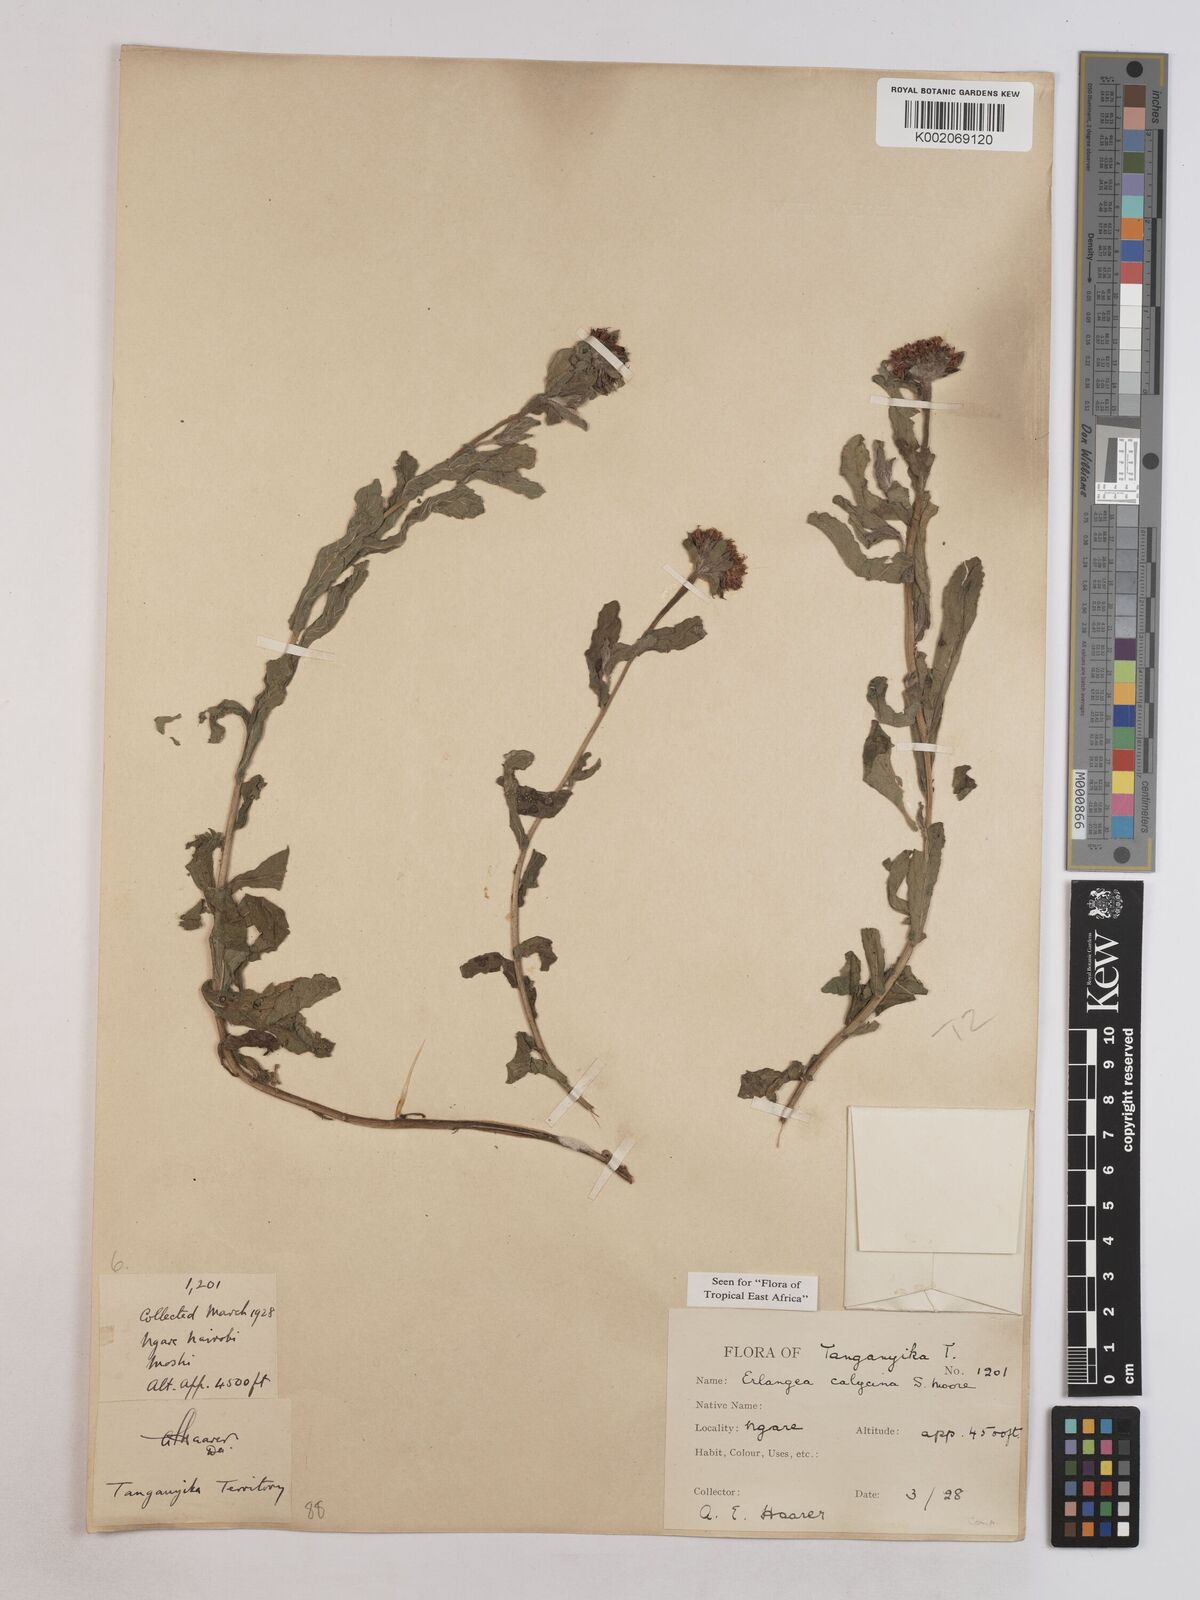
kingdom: Plantae
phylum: Tracheophyta
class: Magnoliopsida
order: Asterales
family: Asteraceae
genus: Erlangea
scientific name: Erlangea calycina
